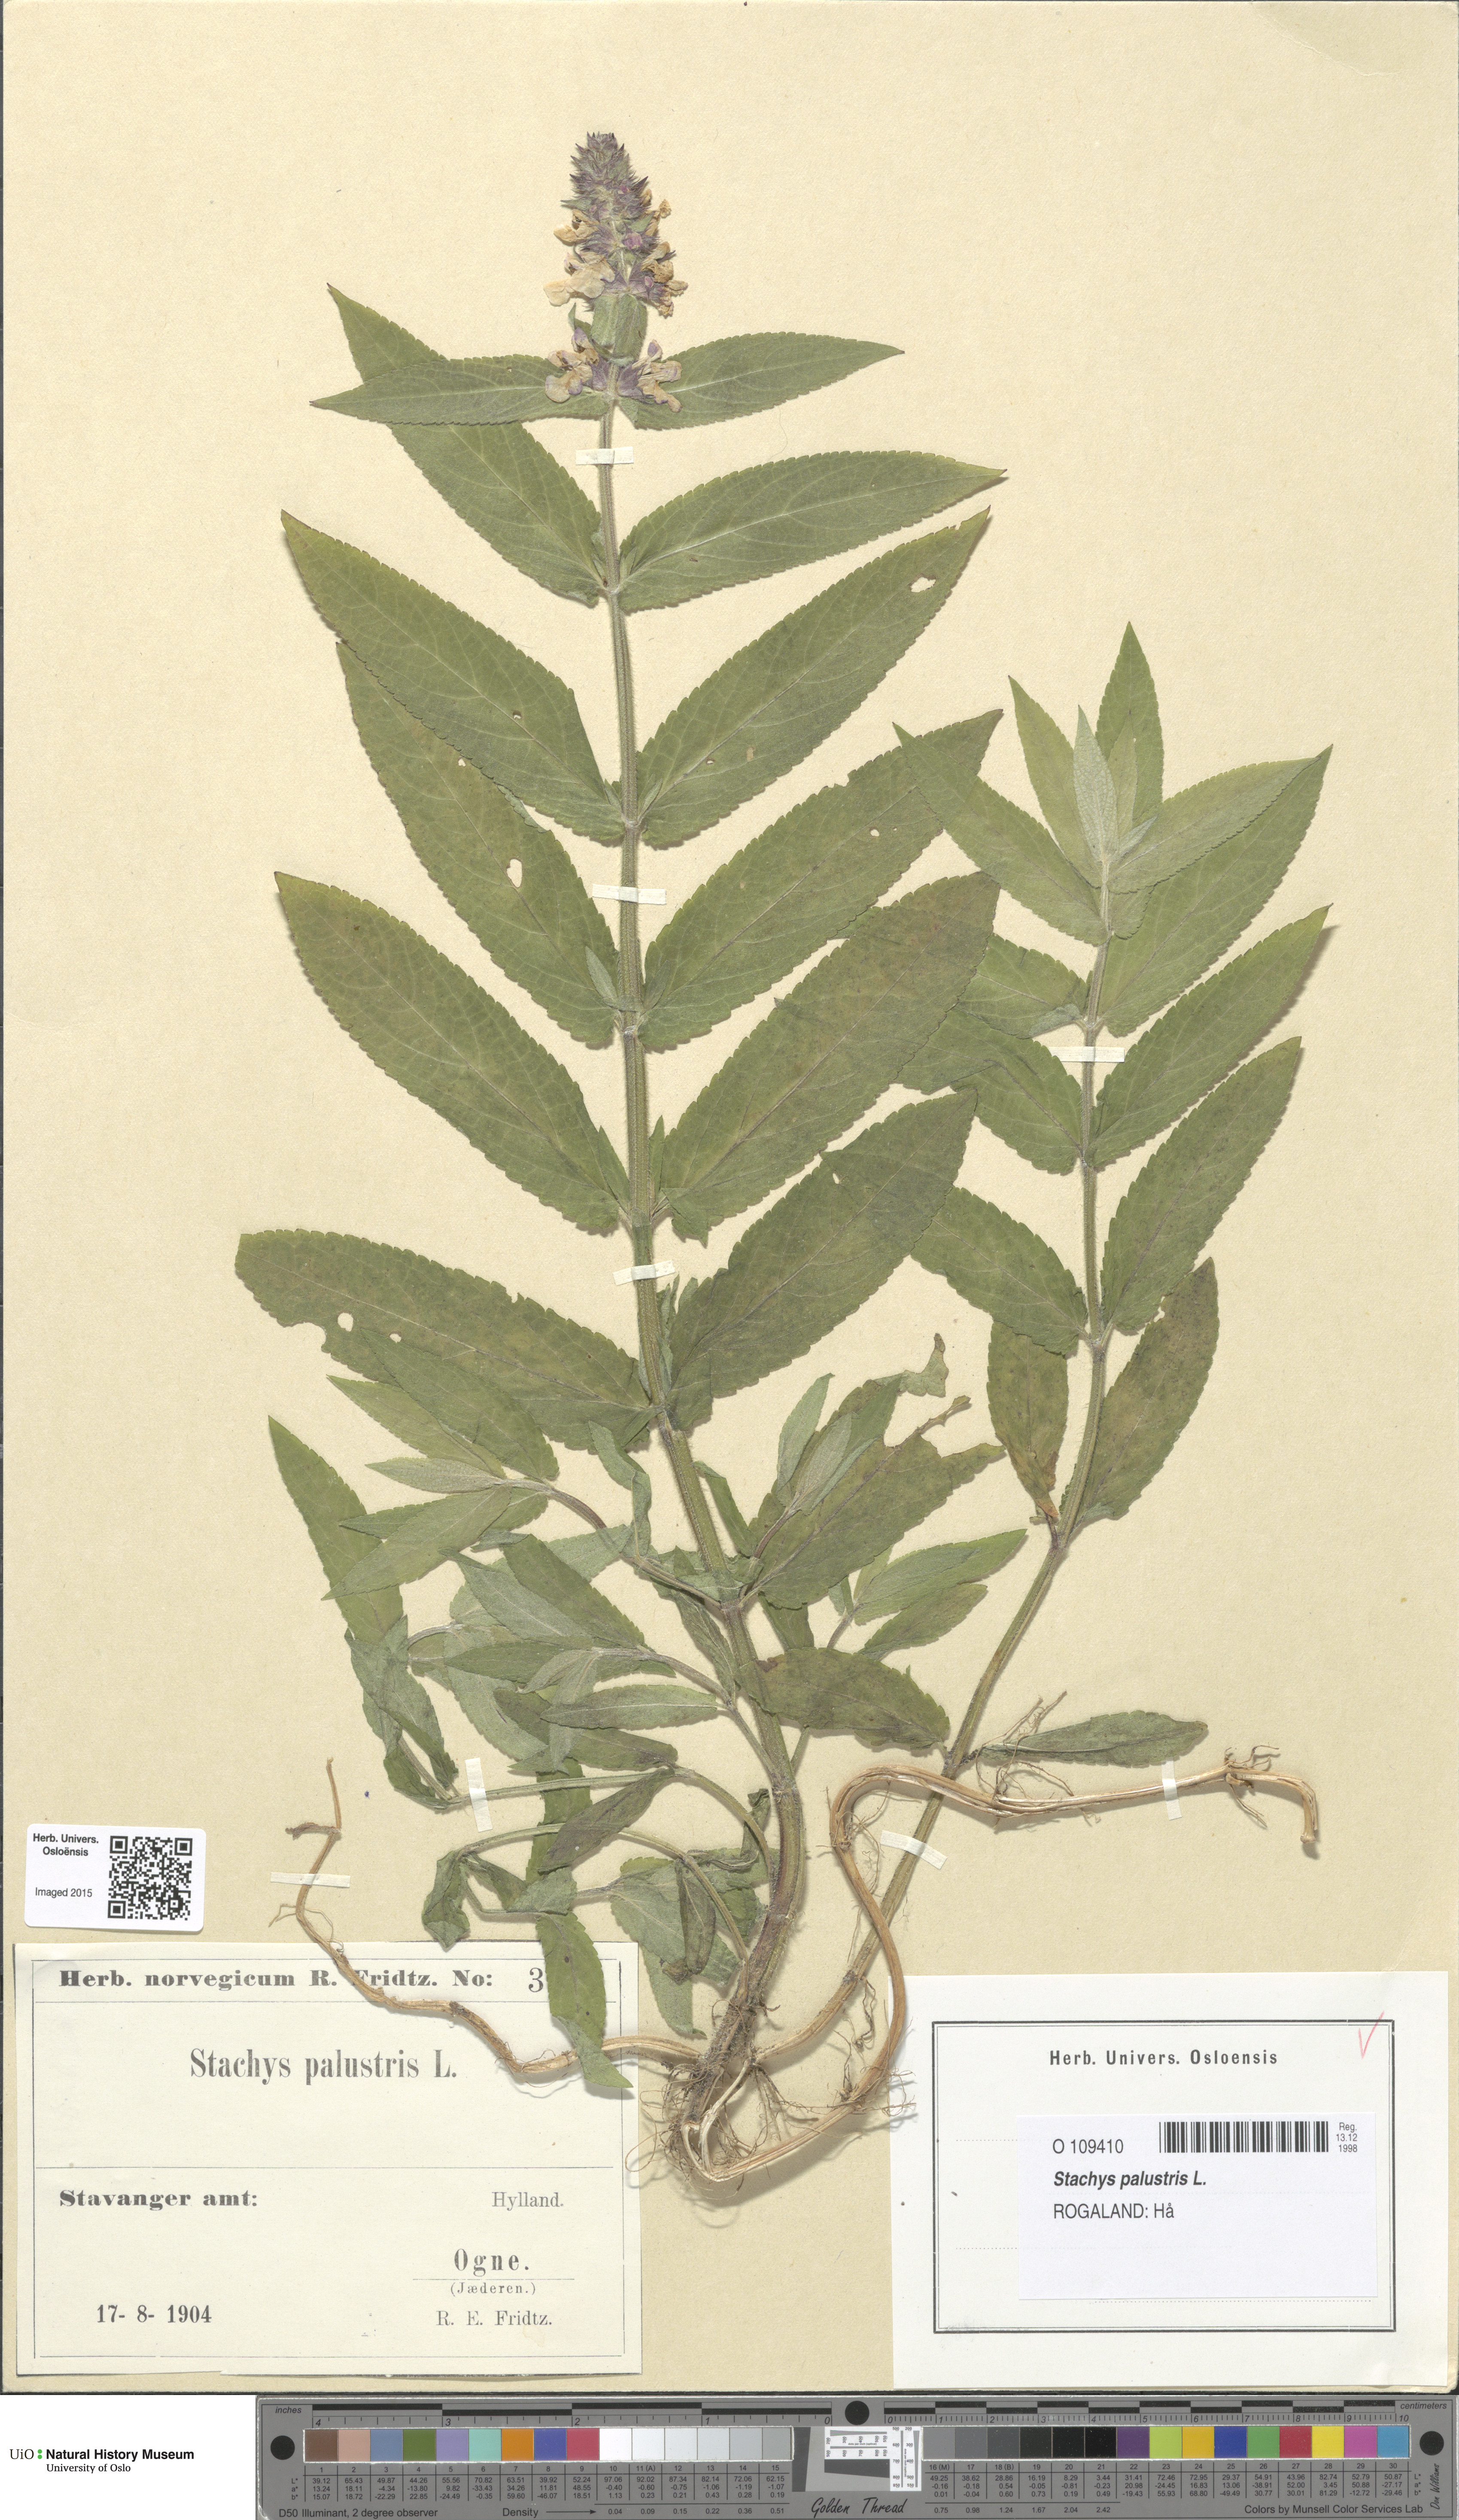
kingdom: Plantae
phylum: Tracheophyta
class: Magnoliopsida
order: Lamiales
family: Lamiaceae
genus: Stachys
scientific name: Stachys palustris
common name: Marsh woundwort
